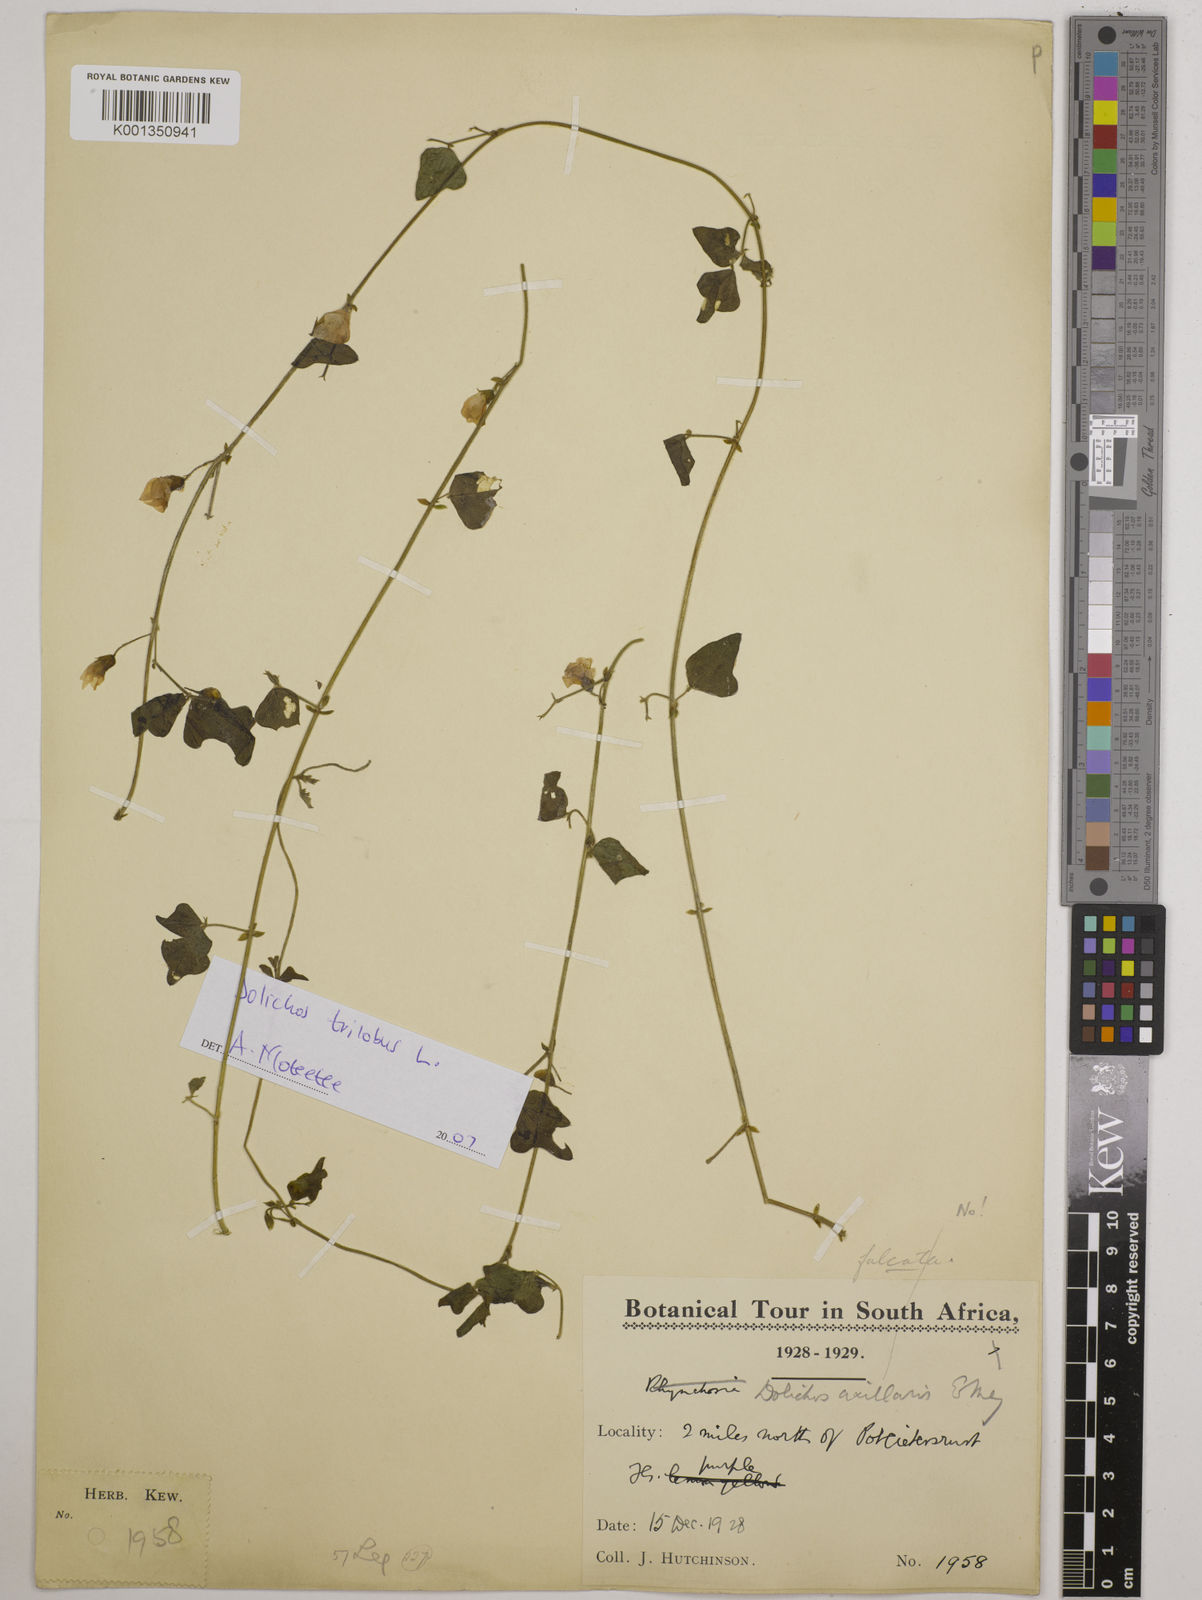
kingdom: Plantae
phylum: Tracheophyta
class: Magnoliopsida
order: Fabales
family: Fabaceae
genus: Dolichos
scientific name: Dolichos
